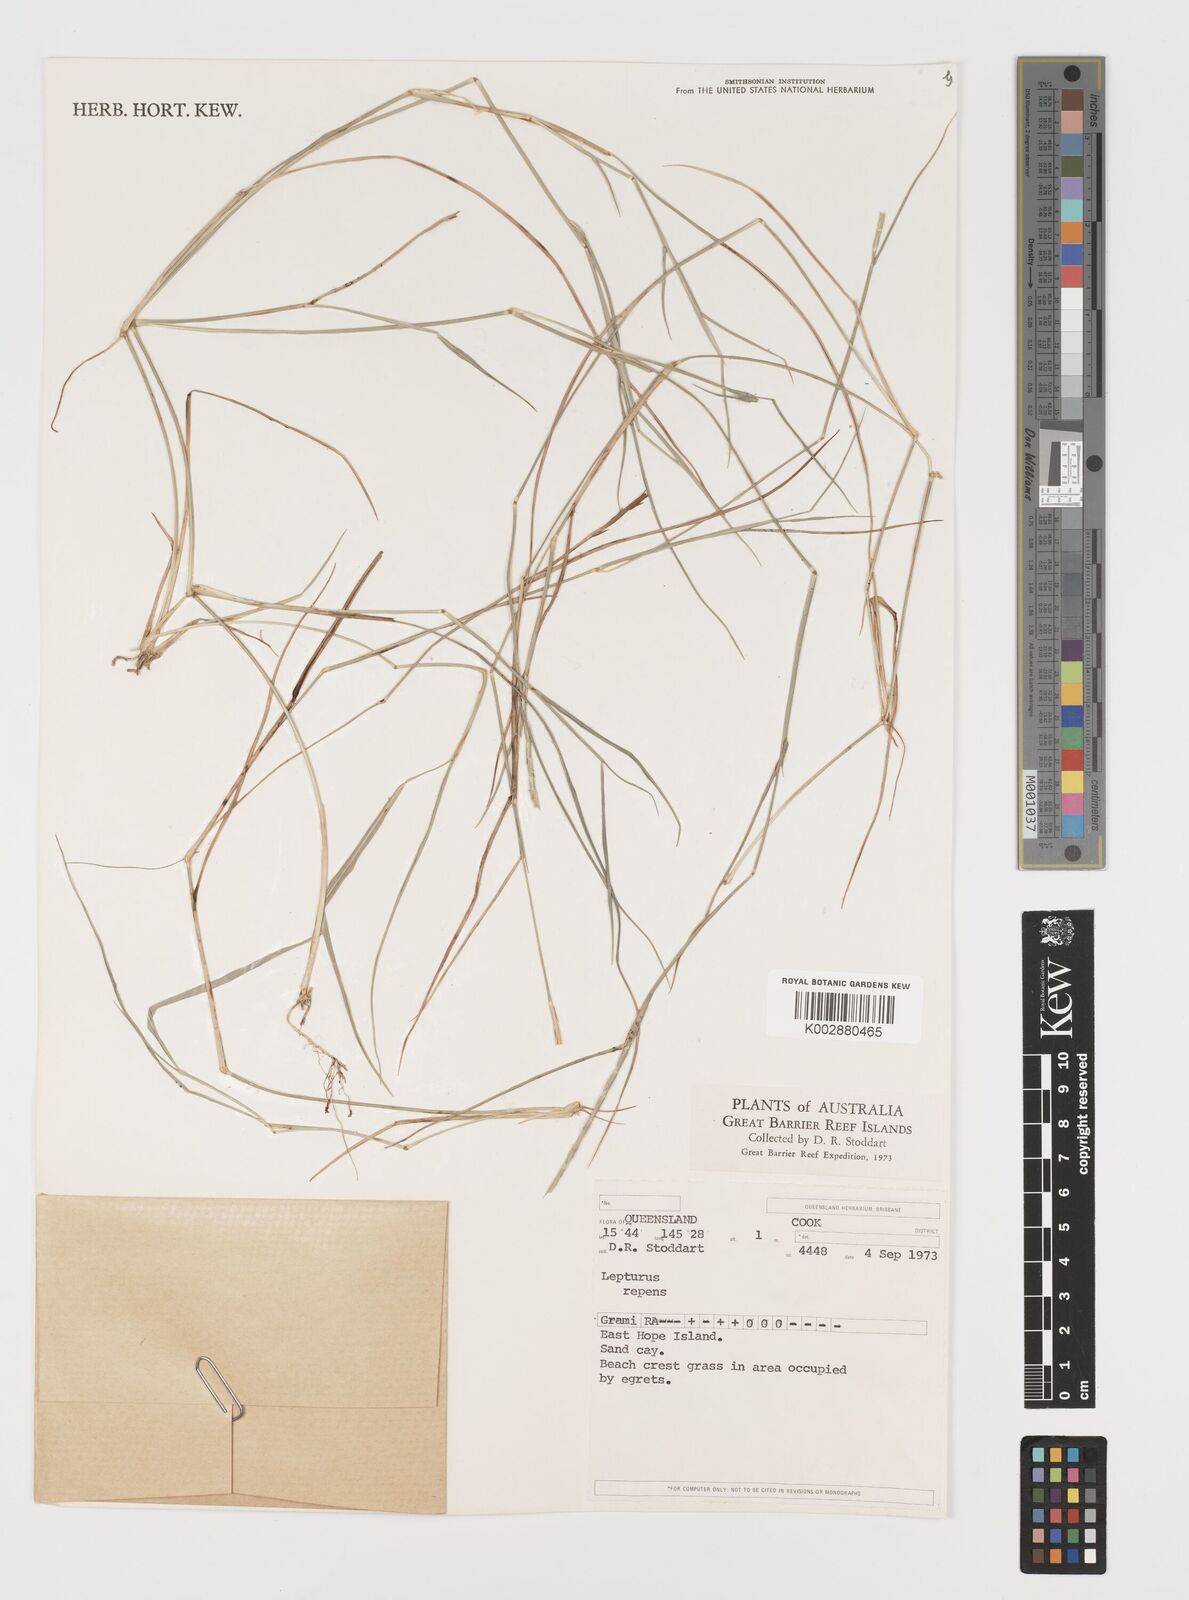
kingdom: Plantae
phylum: Tracheophyta
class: Liliopsida
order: Poales
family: Poaceae
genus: Lepturus
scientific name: Lepturus repens
